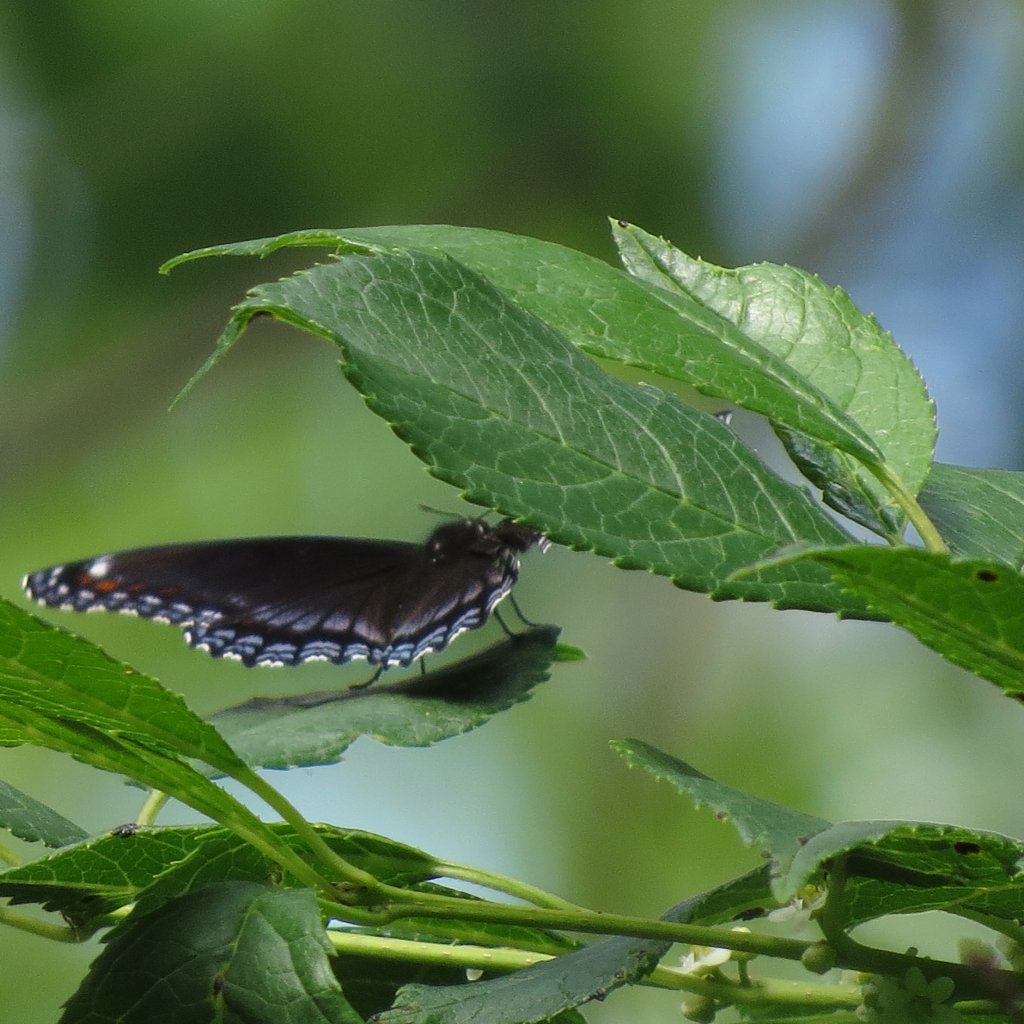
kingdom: Animalia
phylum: Arthropoda
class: Insecta
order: Lepidoptera
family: Nymphalidae
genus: Limenitis
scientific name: Limenitis astyanax
